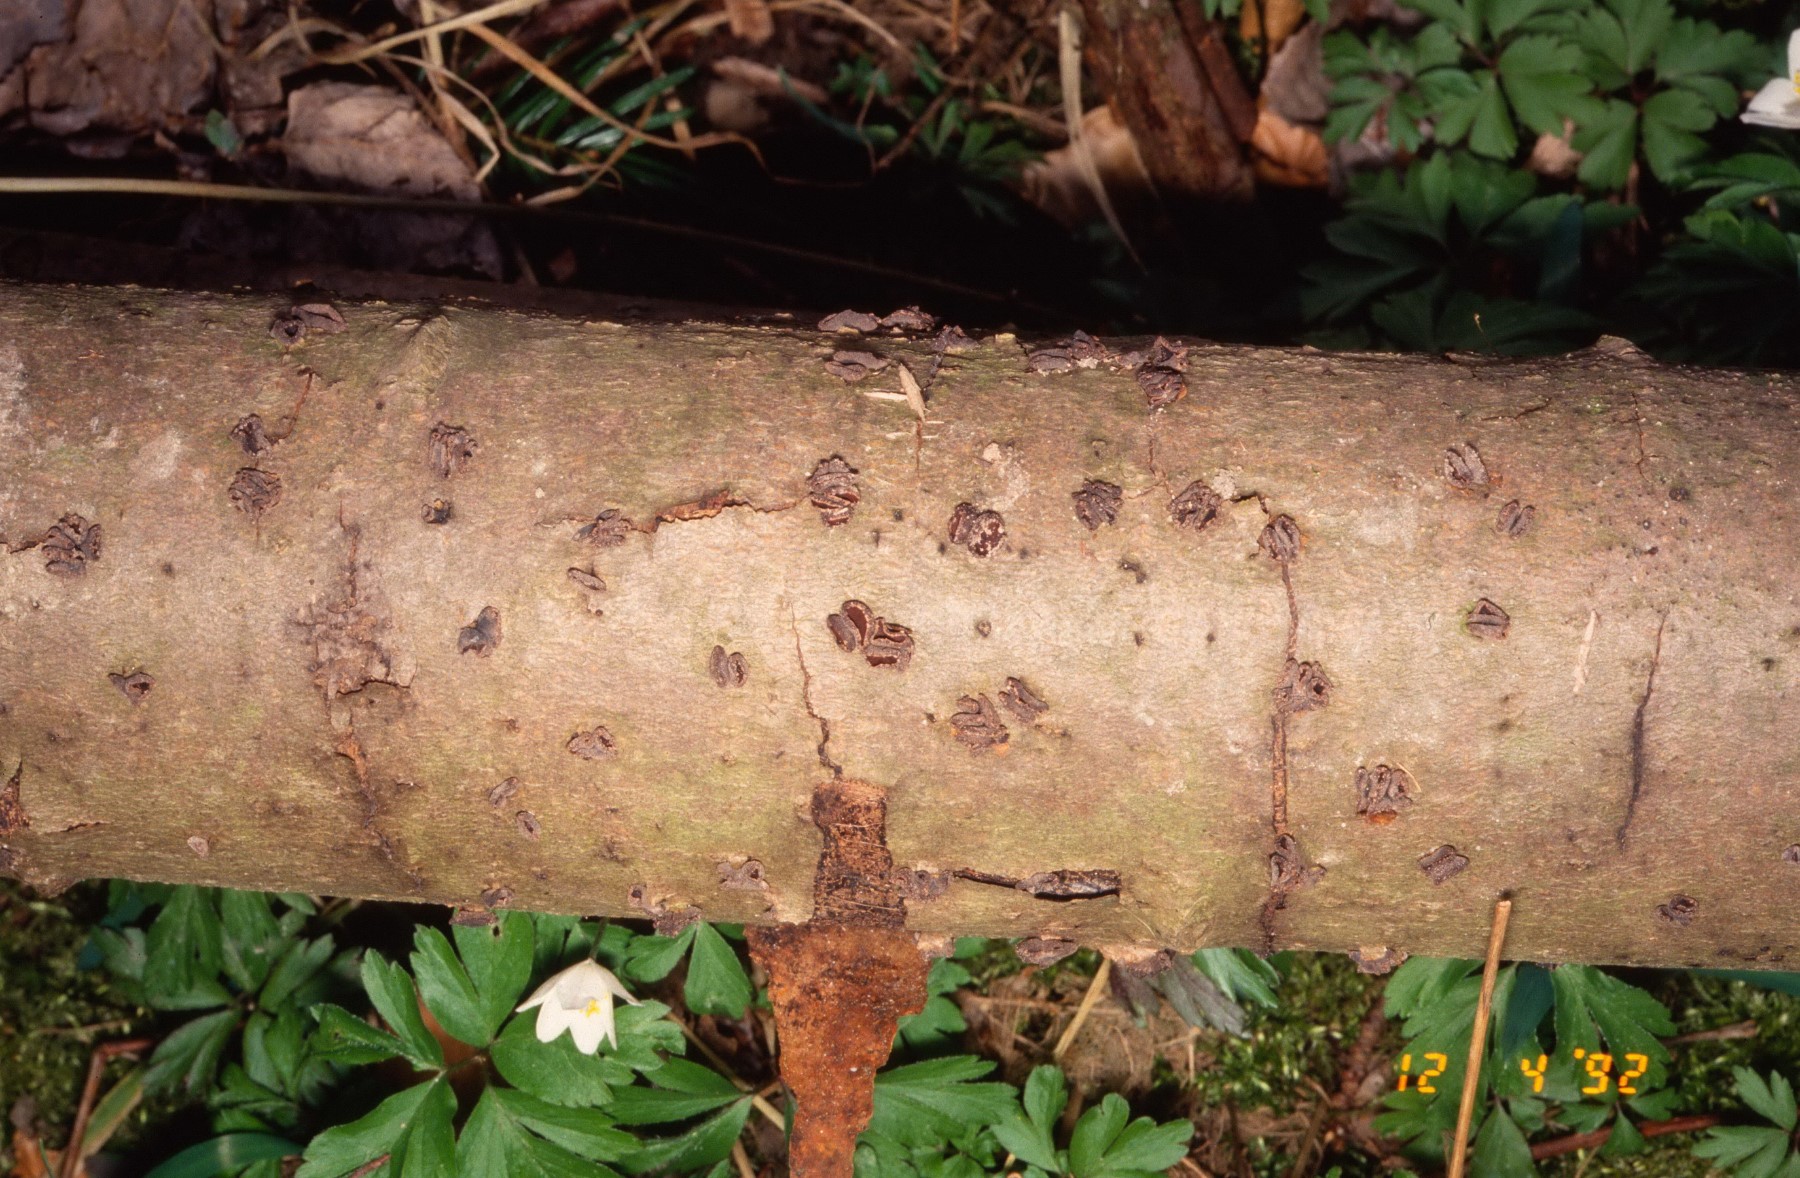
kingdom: Fungi
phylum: Ascomycota
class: Leotiomycetes
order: Helotiales
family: Sclerotiniaceae
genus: Sclerencoelia
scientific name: Sclerencoelia fascicularis
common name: poppel-læderskive
